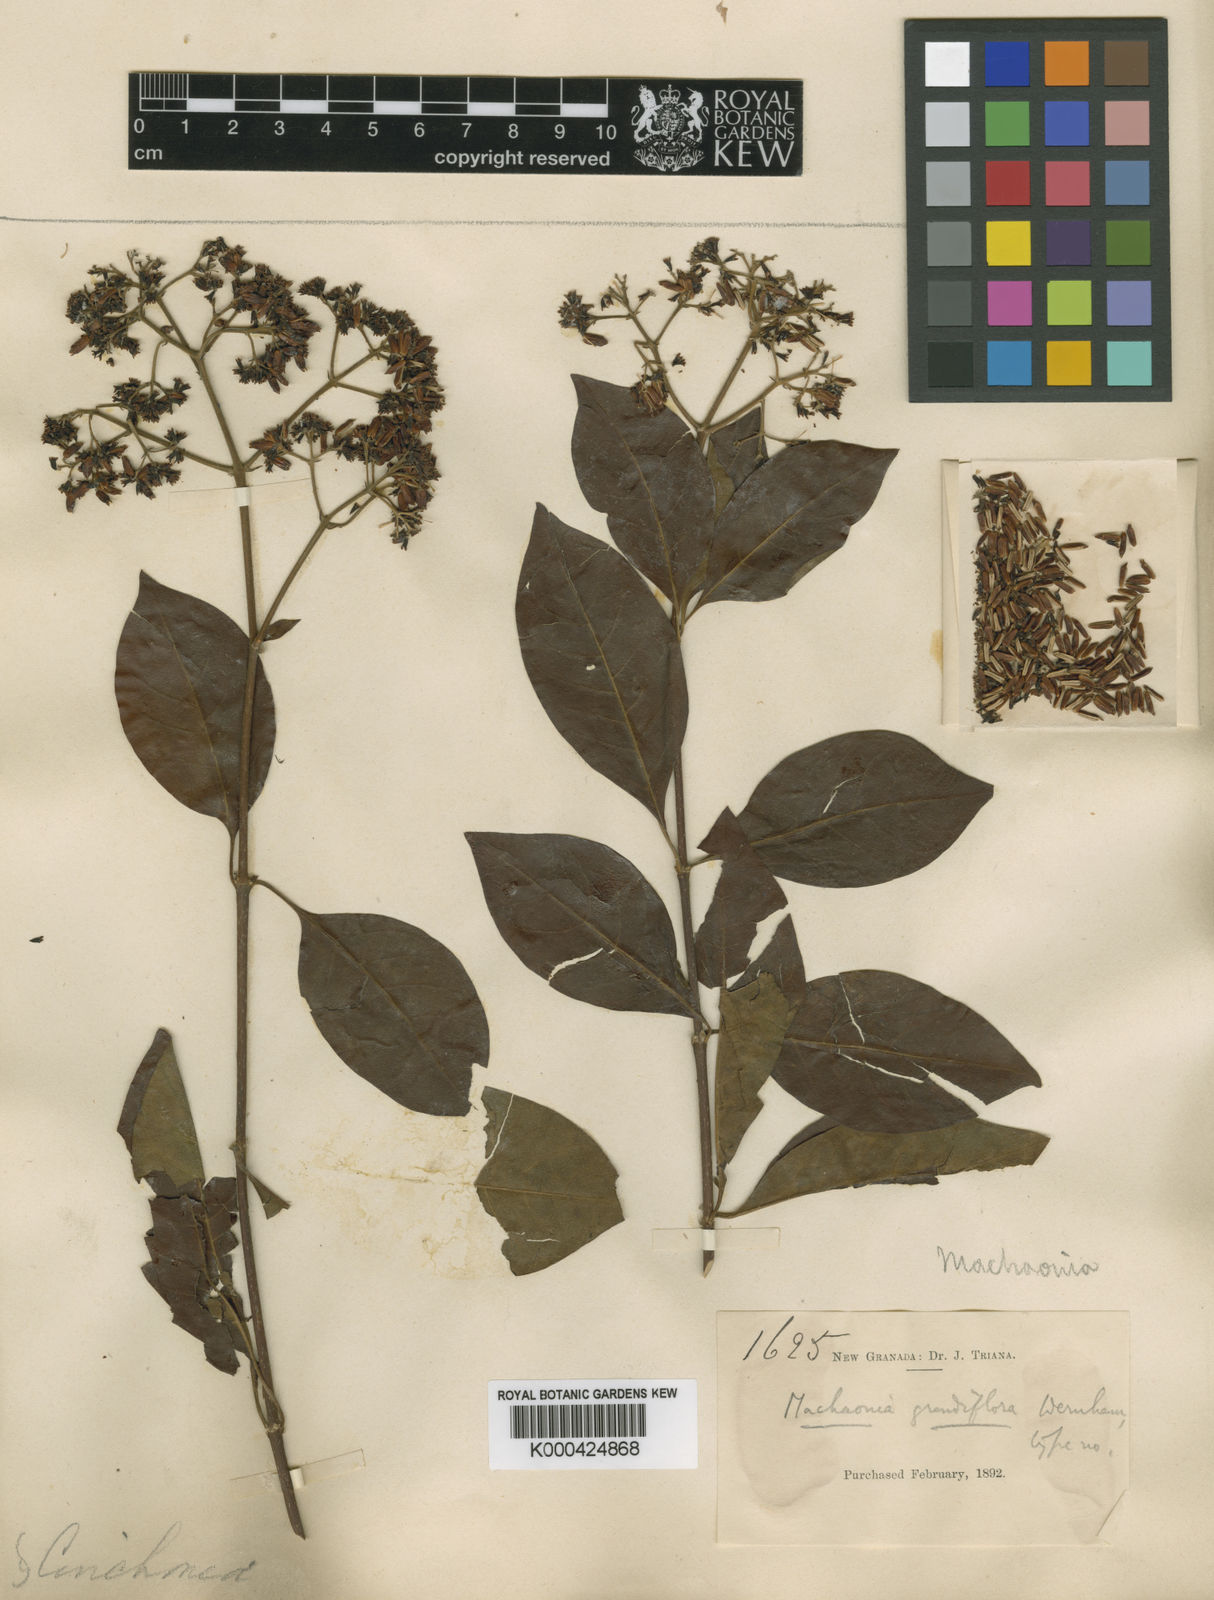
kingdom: Plantae
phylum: Tracheophyta
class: Magnoliopsida
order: Gentianales
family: Rubiaceae
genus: Machaonia
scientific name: Machaonia
